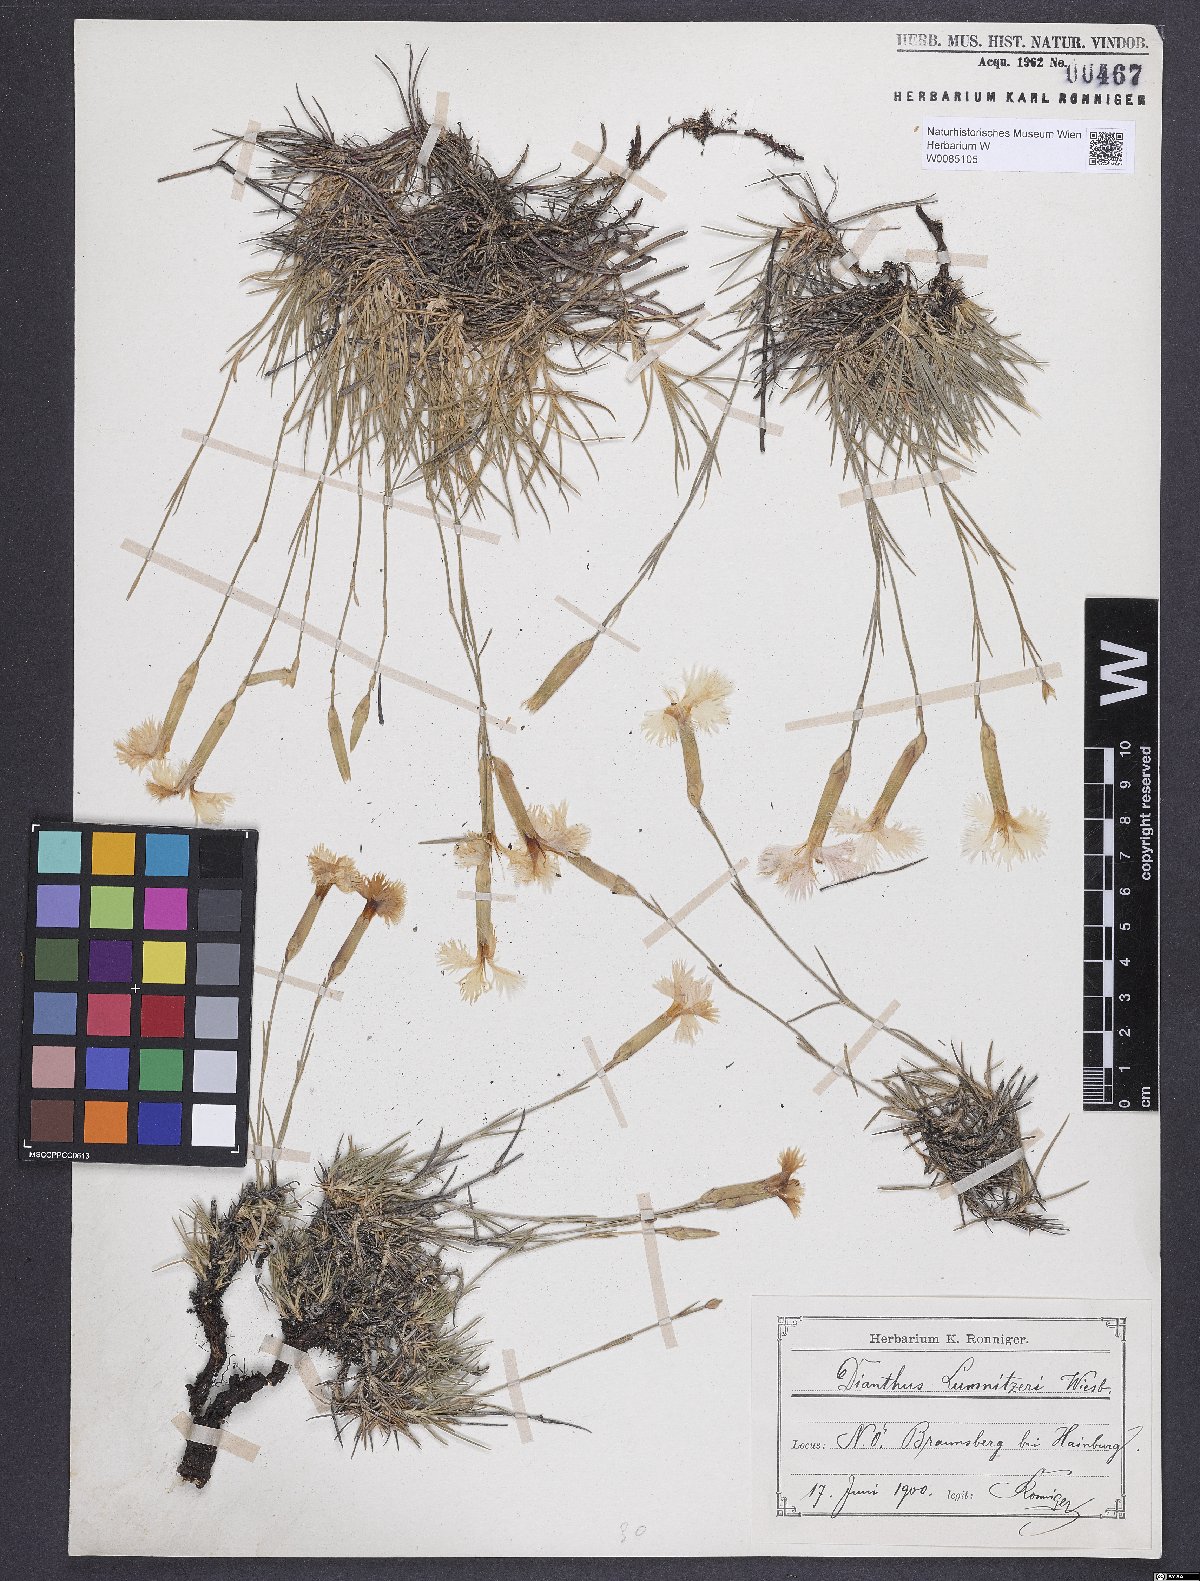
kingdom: Plantae
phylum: Tracheophyta
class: Magnoliopsida
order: Caryophyllales
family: Caryophyllaceae
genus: Dianthus
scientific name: Dianthus praecox
